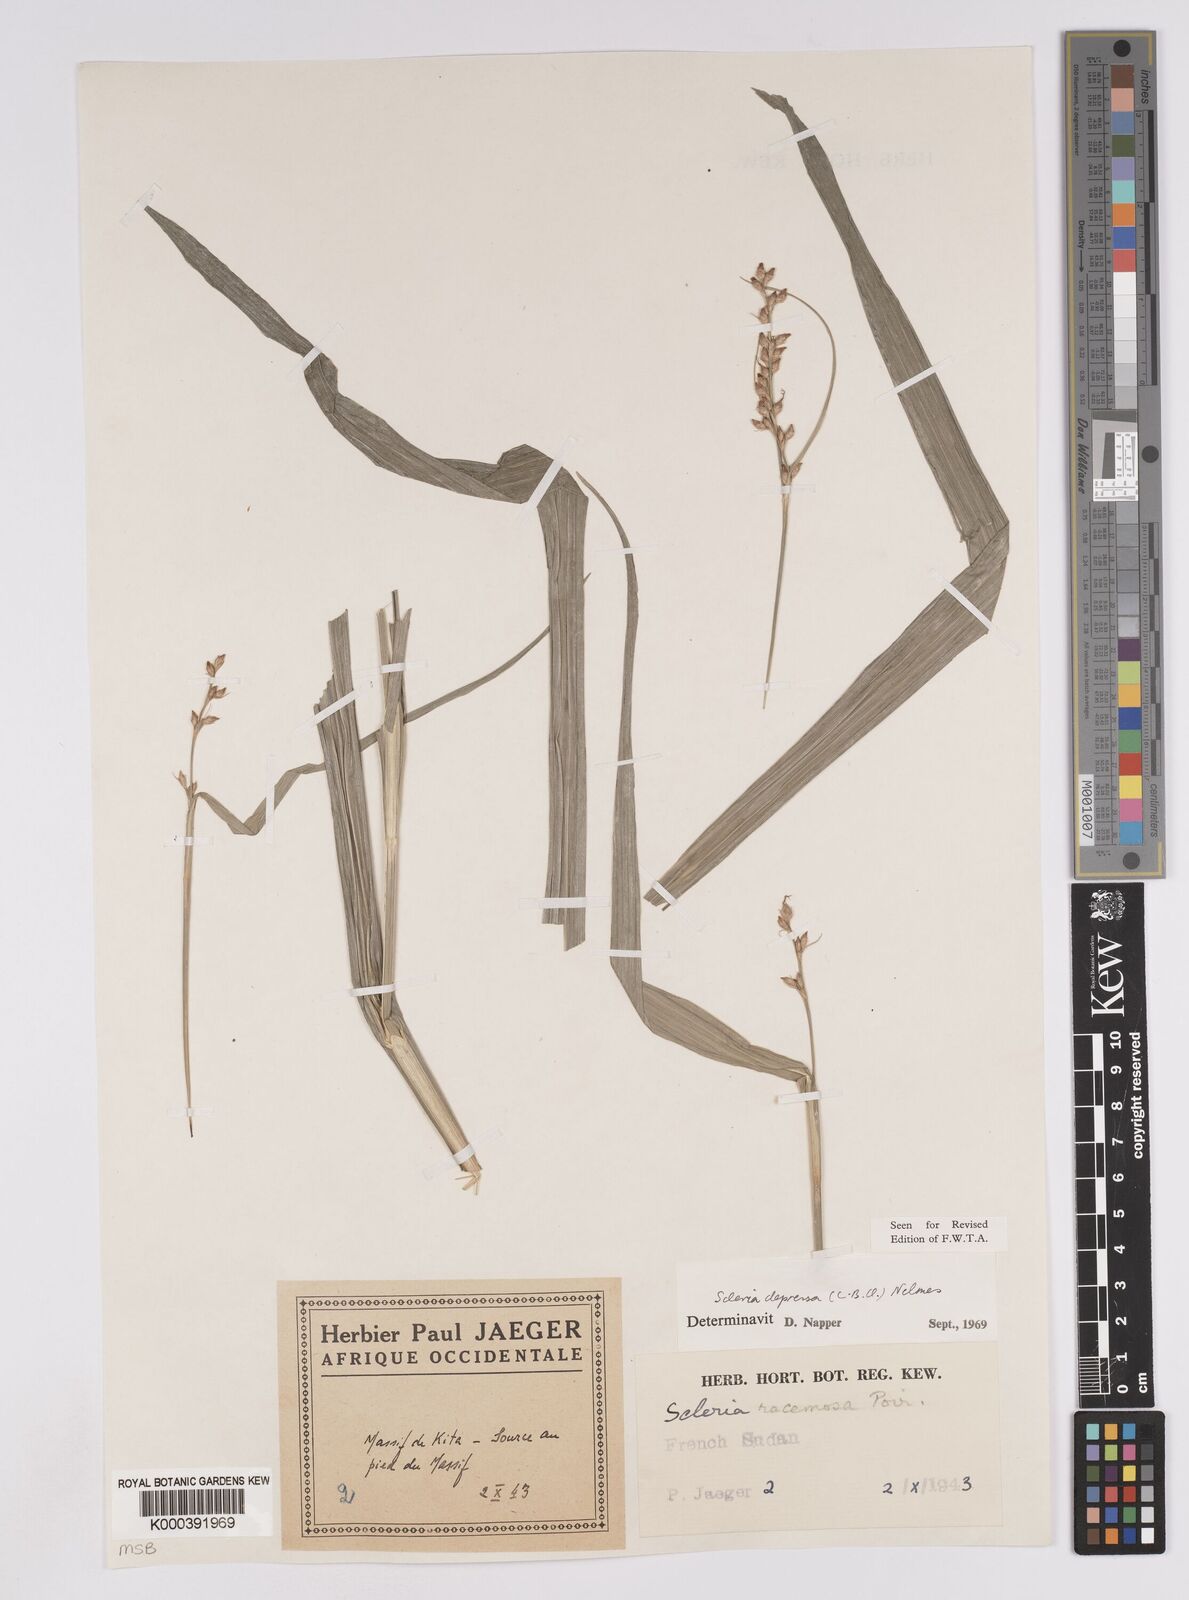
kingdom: Plantae
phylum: Tracheophyta
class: Liliopsida
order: Poales
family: Cyperaceae
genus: Scleria
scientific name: Scleria tessellata
